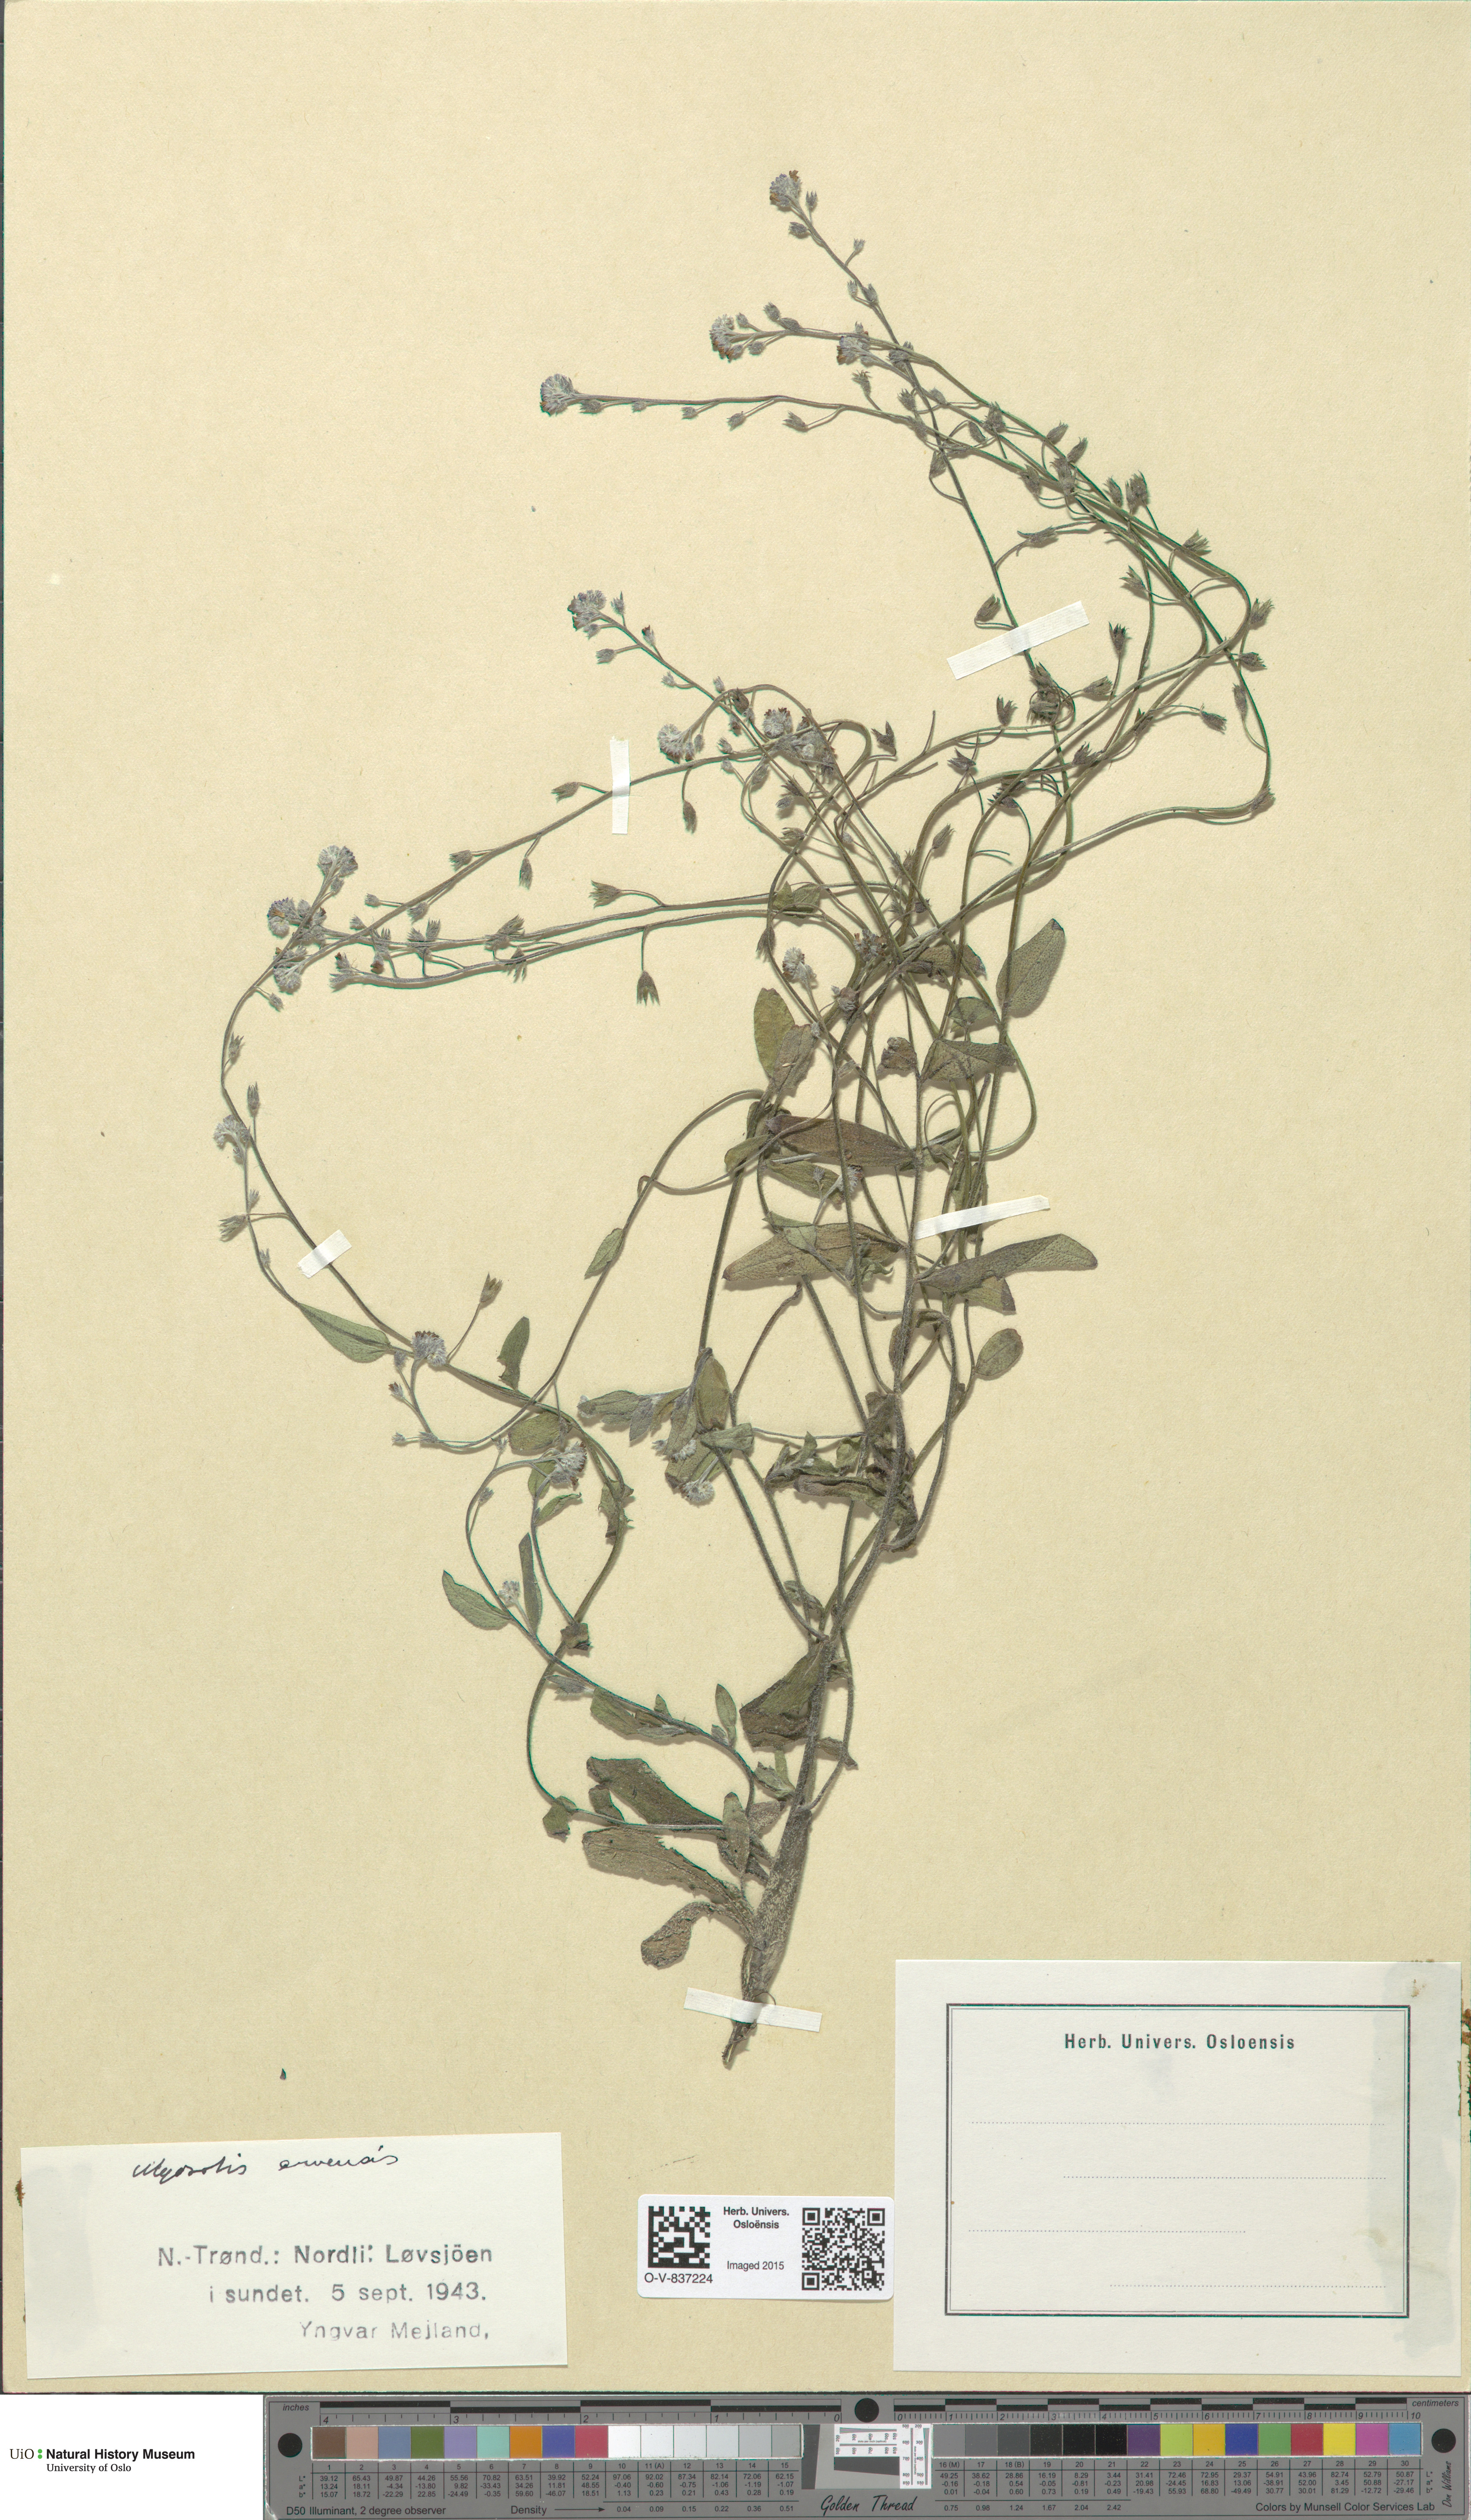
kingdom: Plantae
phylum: Tracheophyta
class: Magnoliopsida
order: Boraginales
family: Boraginaceae
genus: Myosotis
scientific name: Myosotis arvensis
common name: Field forget-me-not
